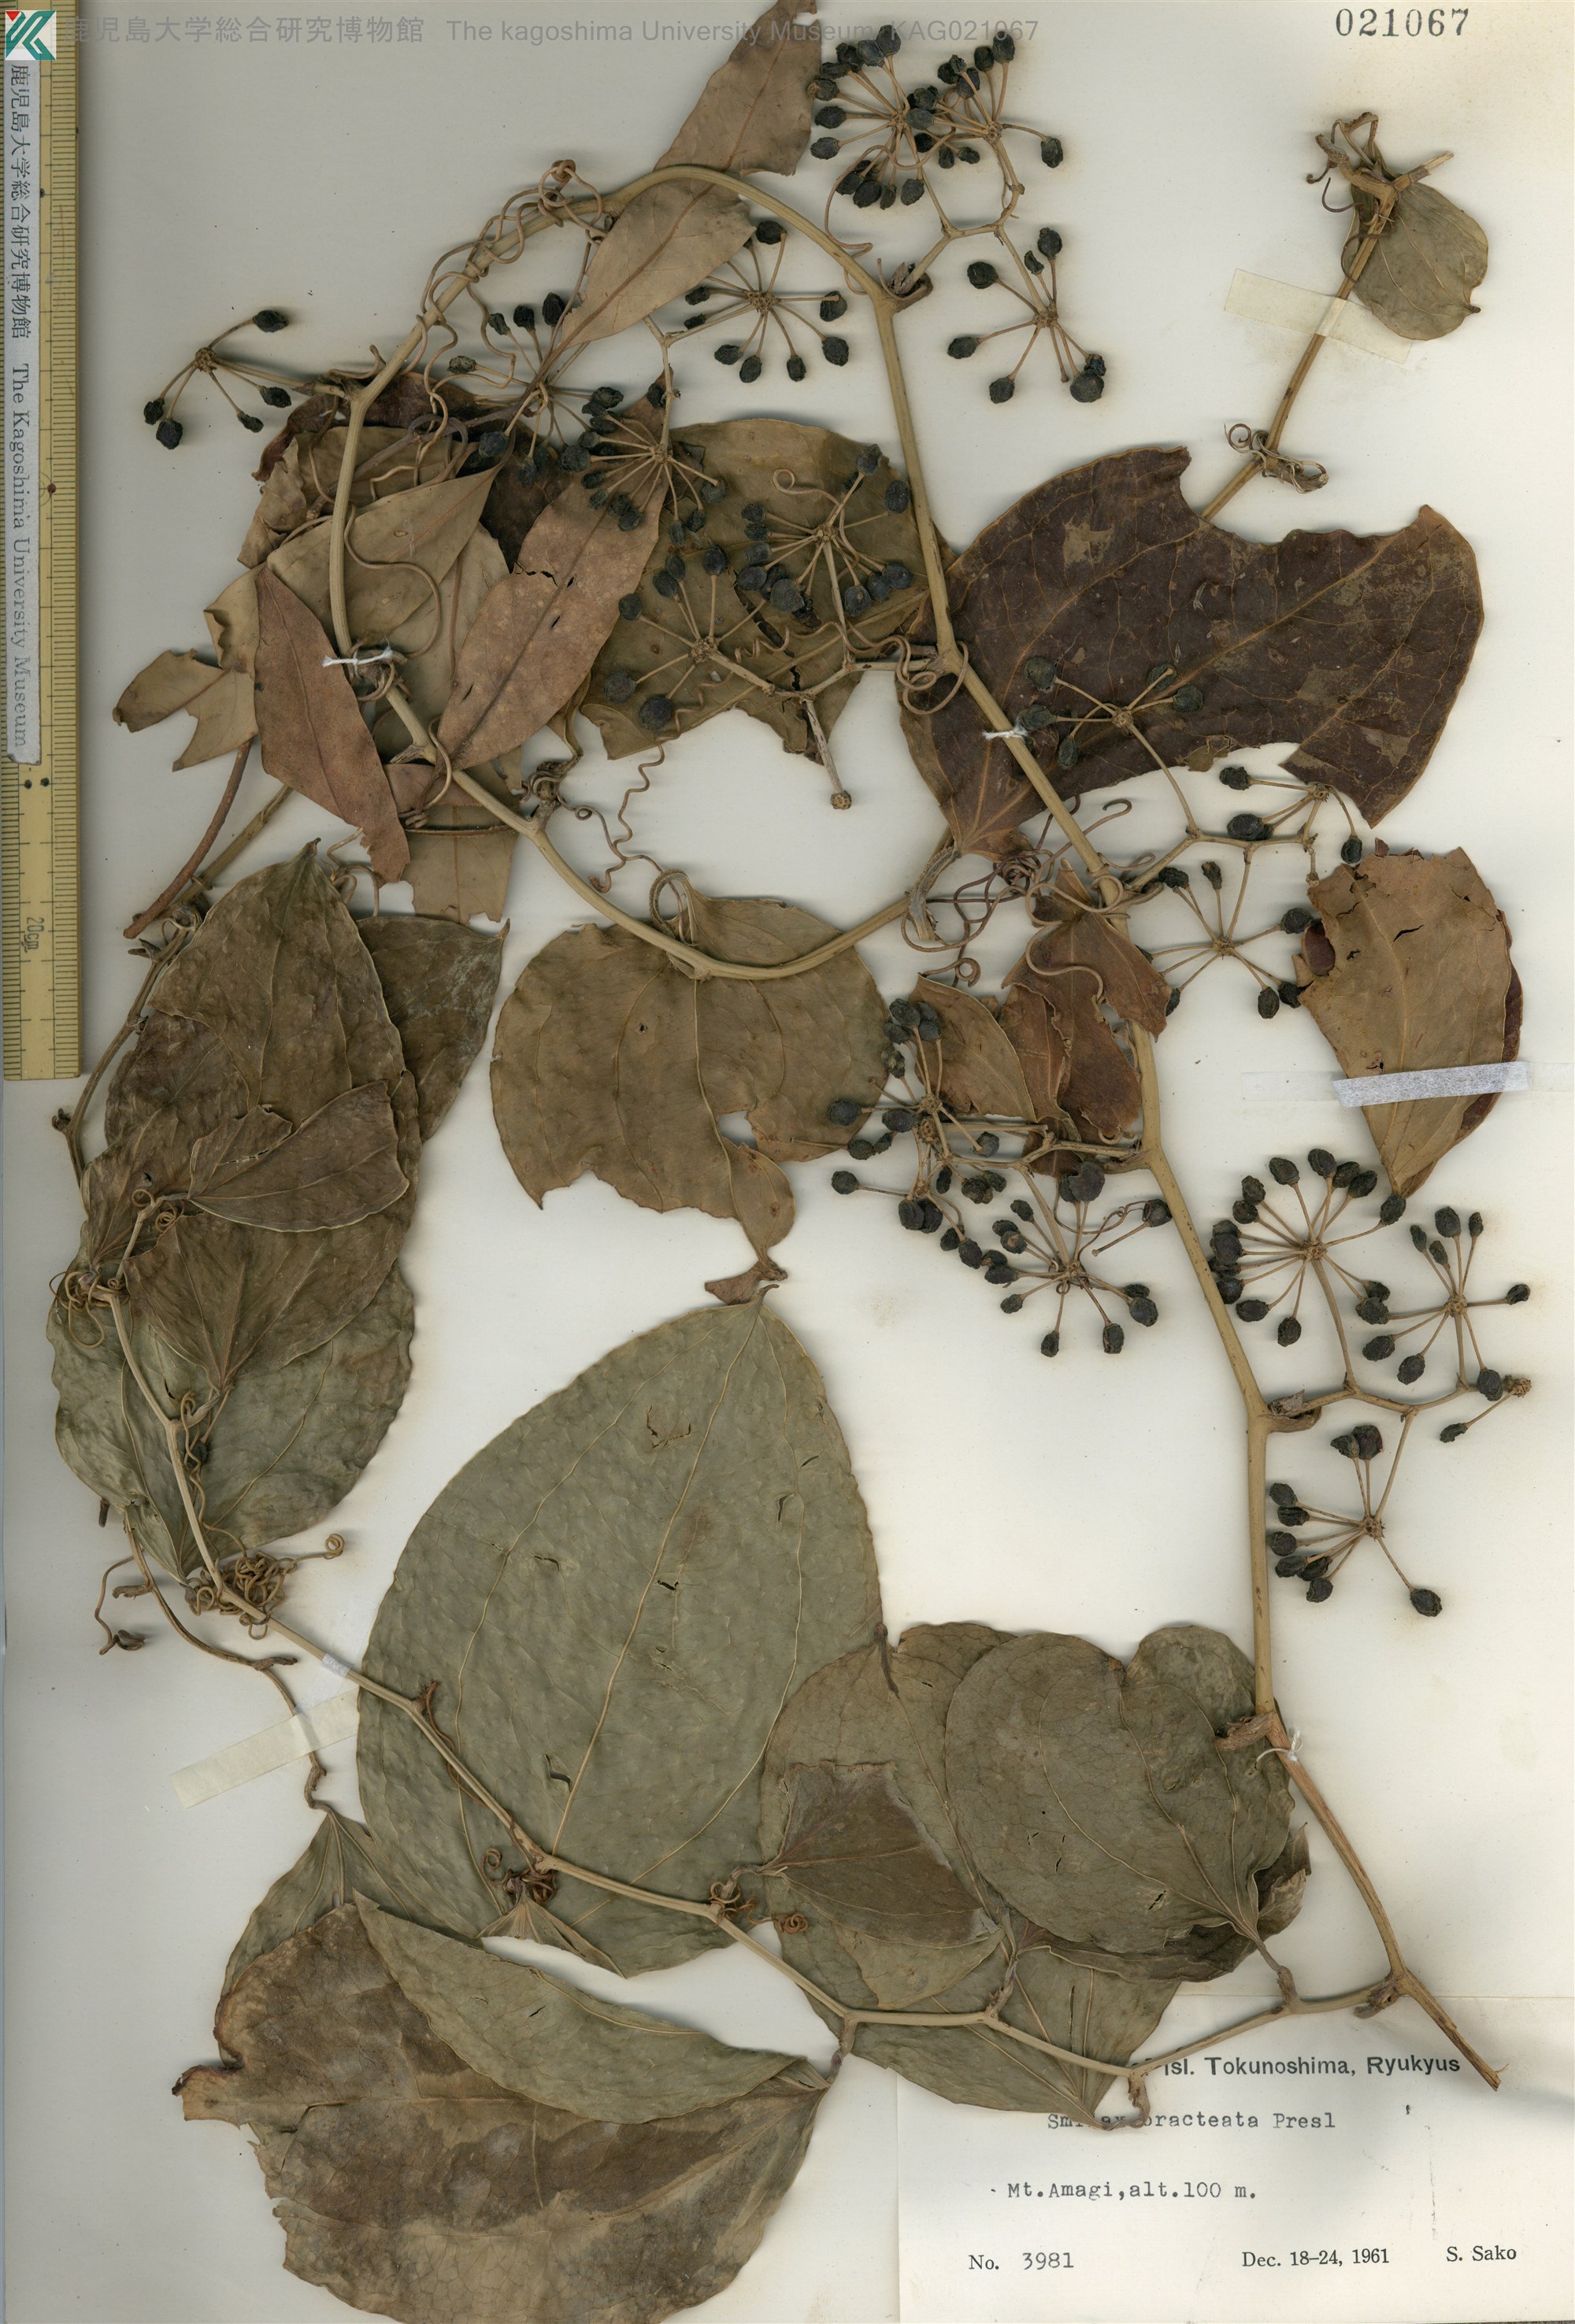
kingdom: Plantae
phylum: Tracheophyta
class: Liliopsida
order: Liliales
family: Smilacaceae
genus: Smilax
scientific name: Smilax bracteata
